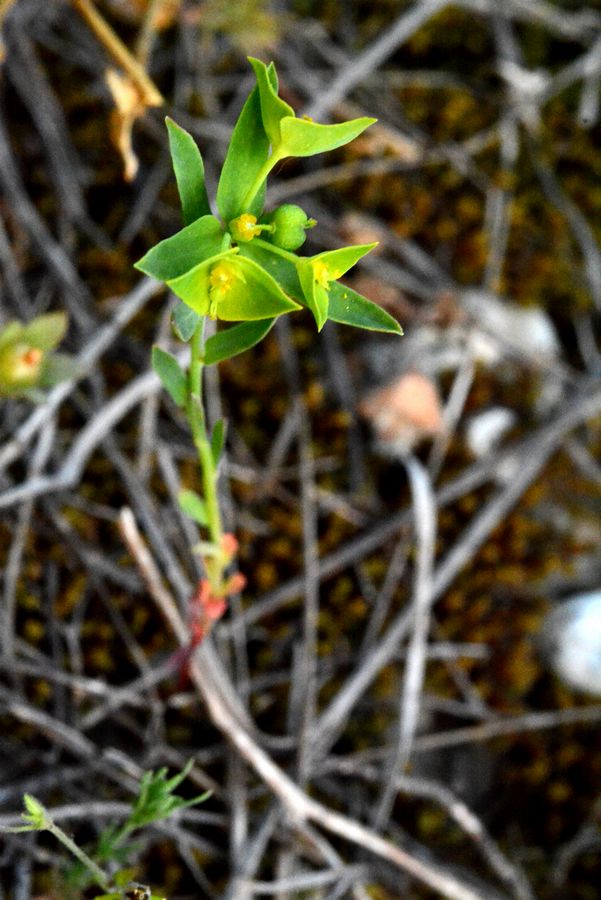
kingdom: Plantae
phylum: Tracheophyta
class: Magnoliopsida
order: Malpighiales
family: Euphorbiaceae
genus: Euphorbia
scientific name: Euphorbia taurinensis
